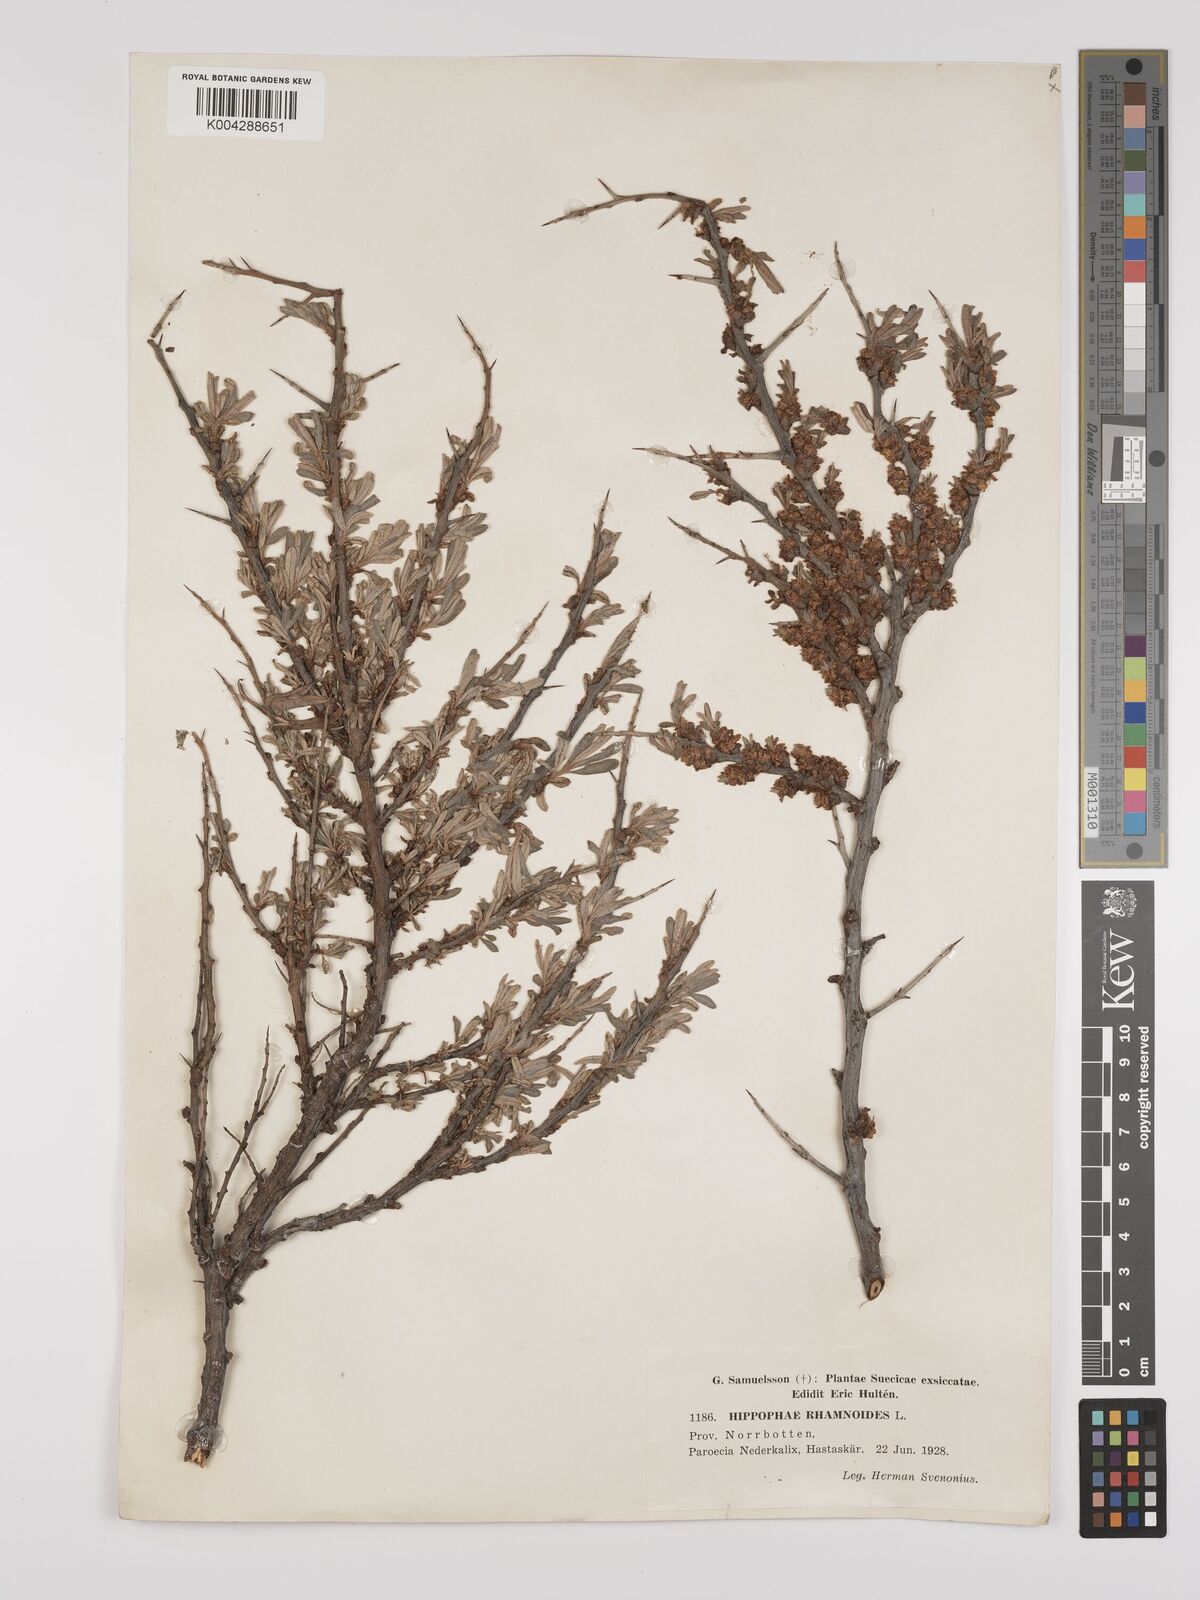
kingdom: Plantae
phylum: Tracheophyta
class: Magnoliopsida
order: Rosales
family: Elaeagnaceae
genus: Hippophae
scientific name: Hippophae rhamnoides
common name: Sea-buckthorn
